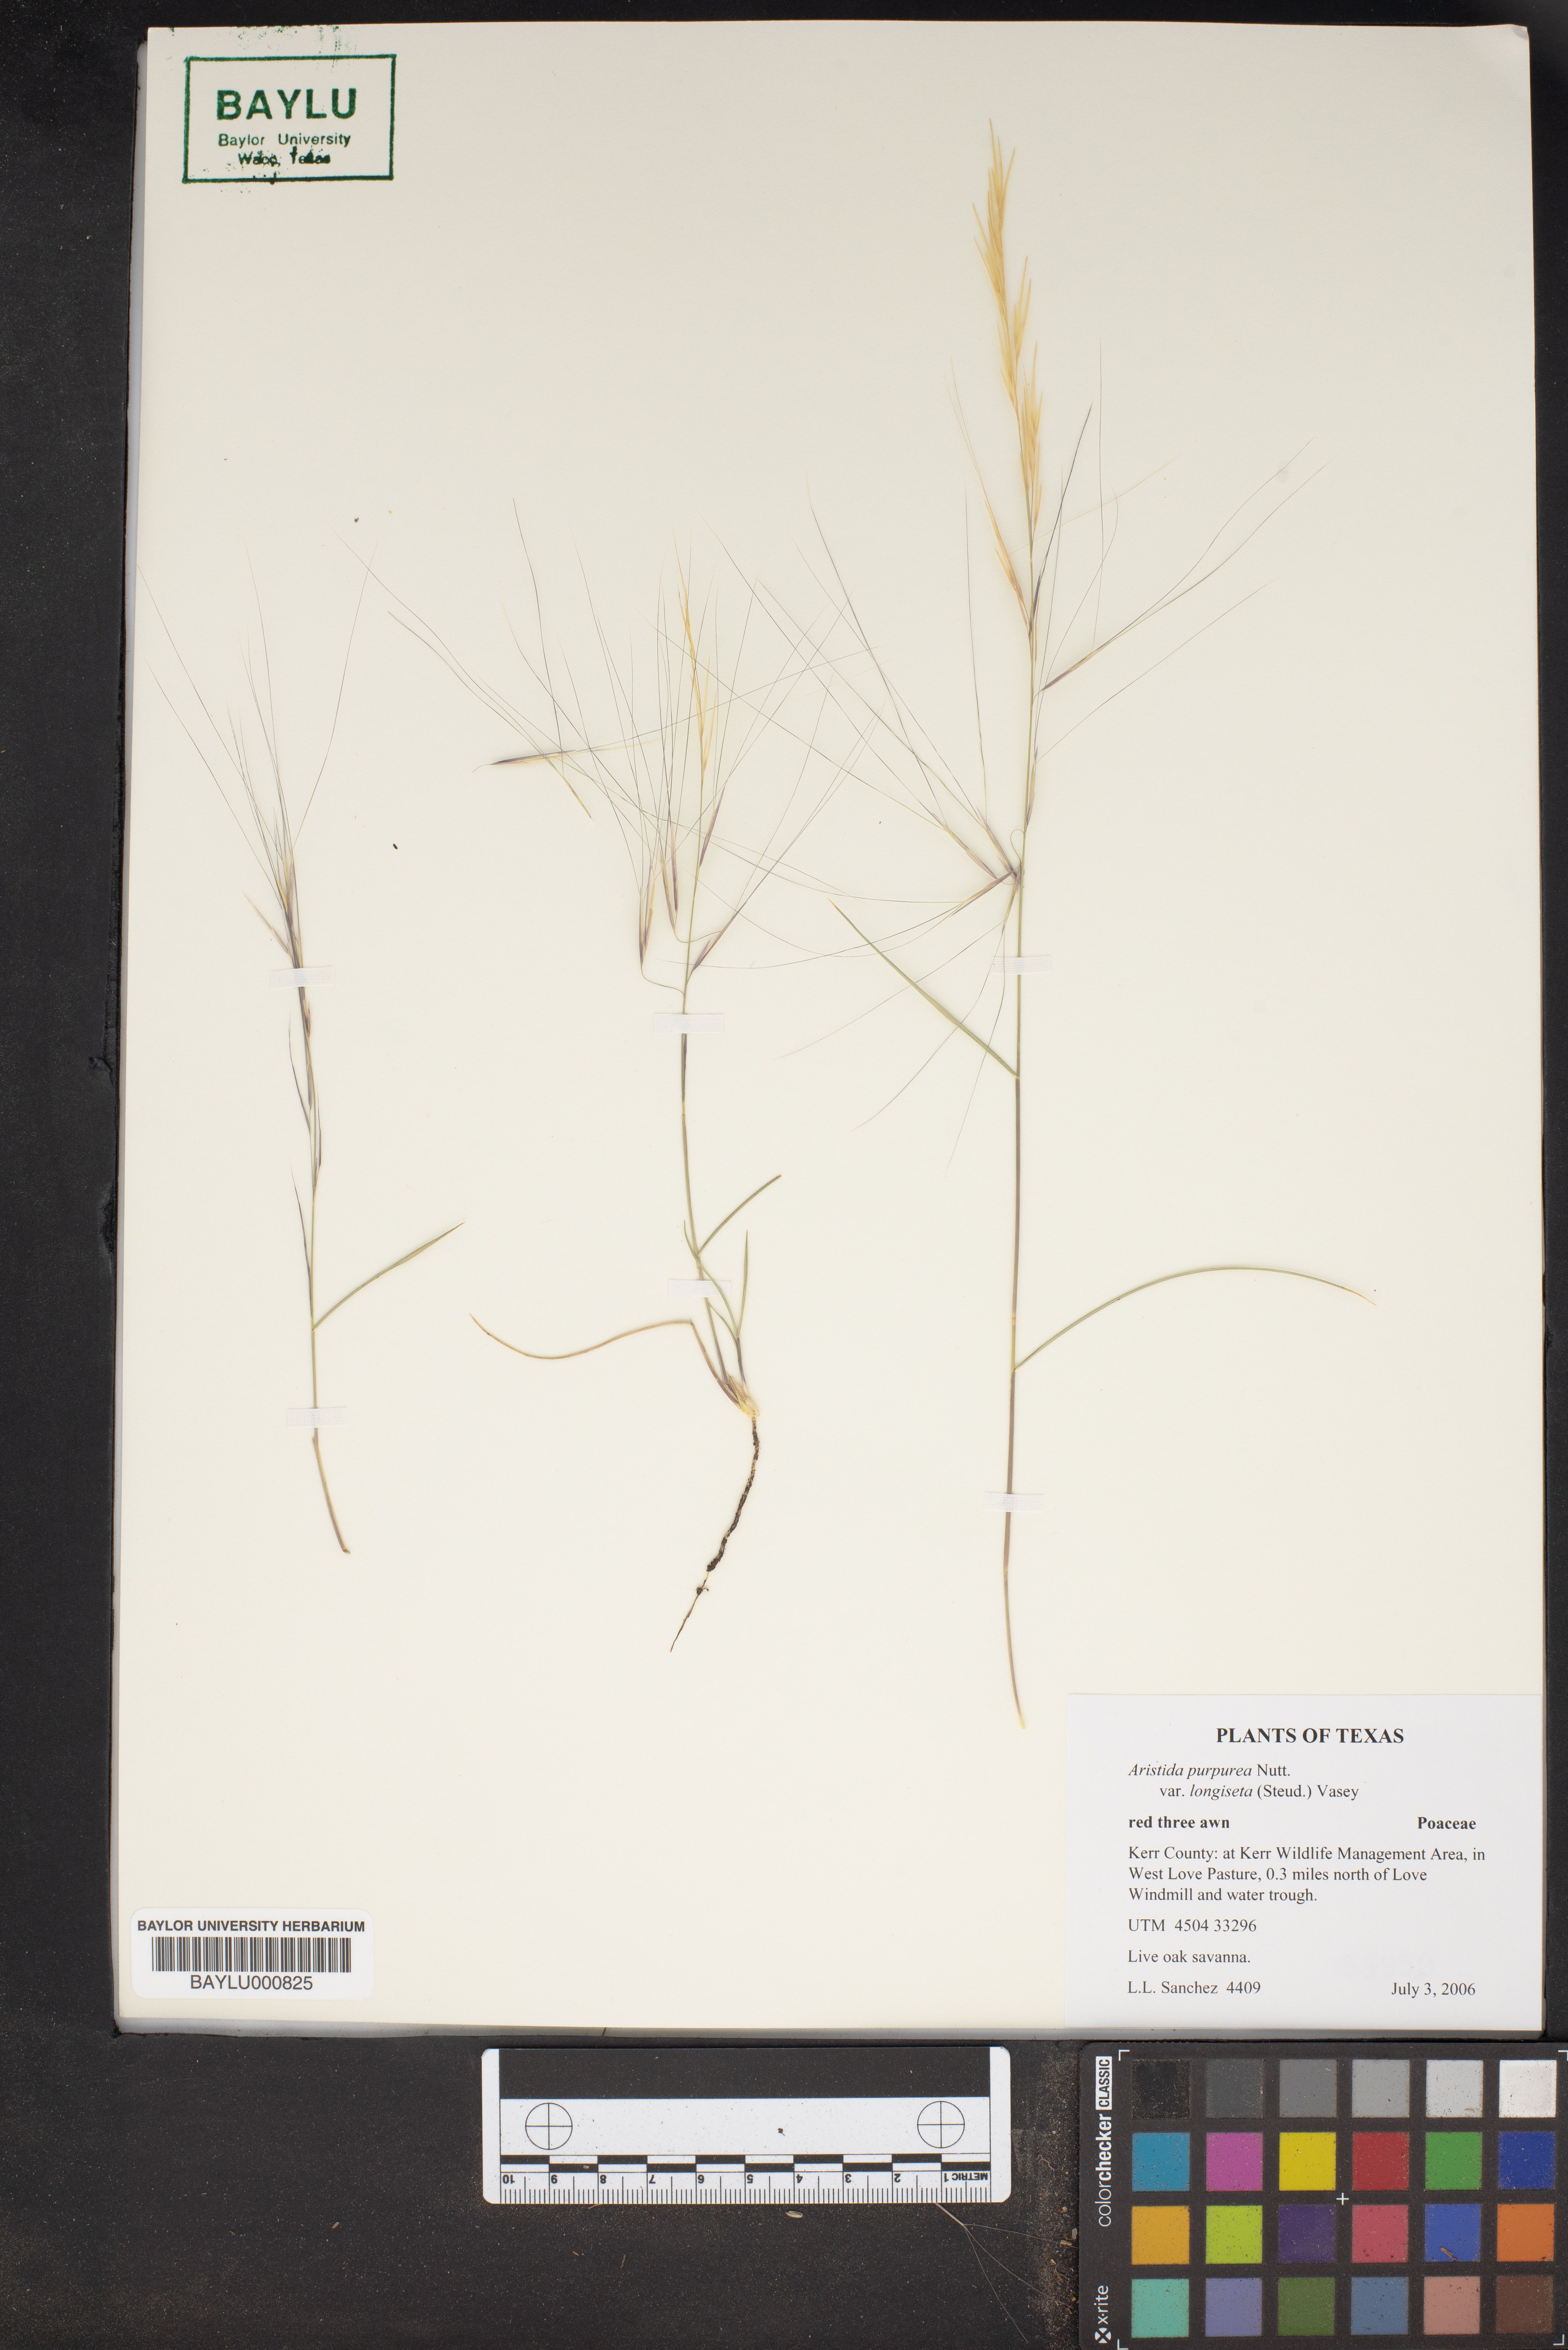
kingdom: Plantae
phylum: Tracheophyta
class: Liliopsida
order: Poales
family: Poaceae
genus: Aristida
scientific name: Aristida purpurea
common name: Purple threeawn
